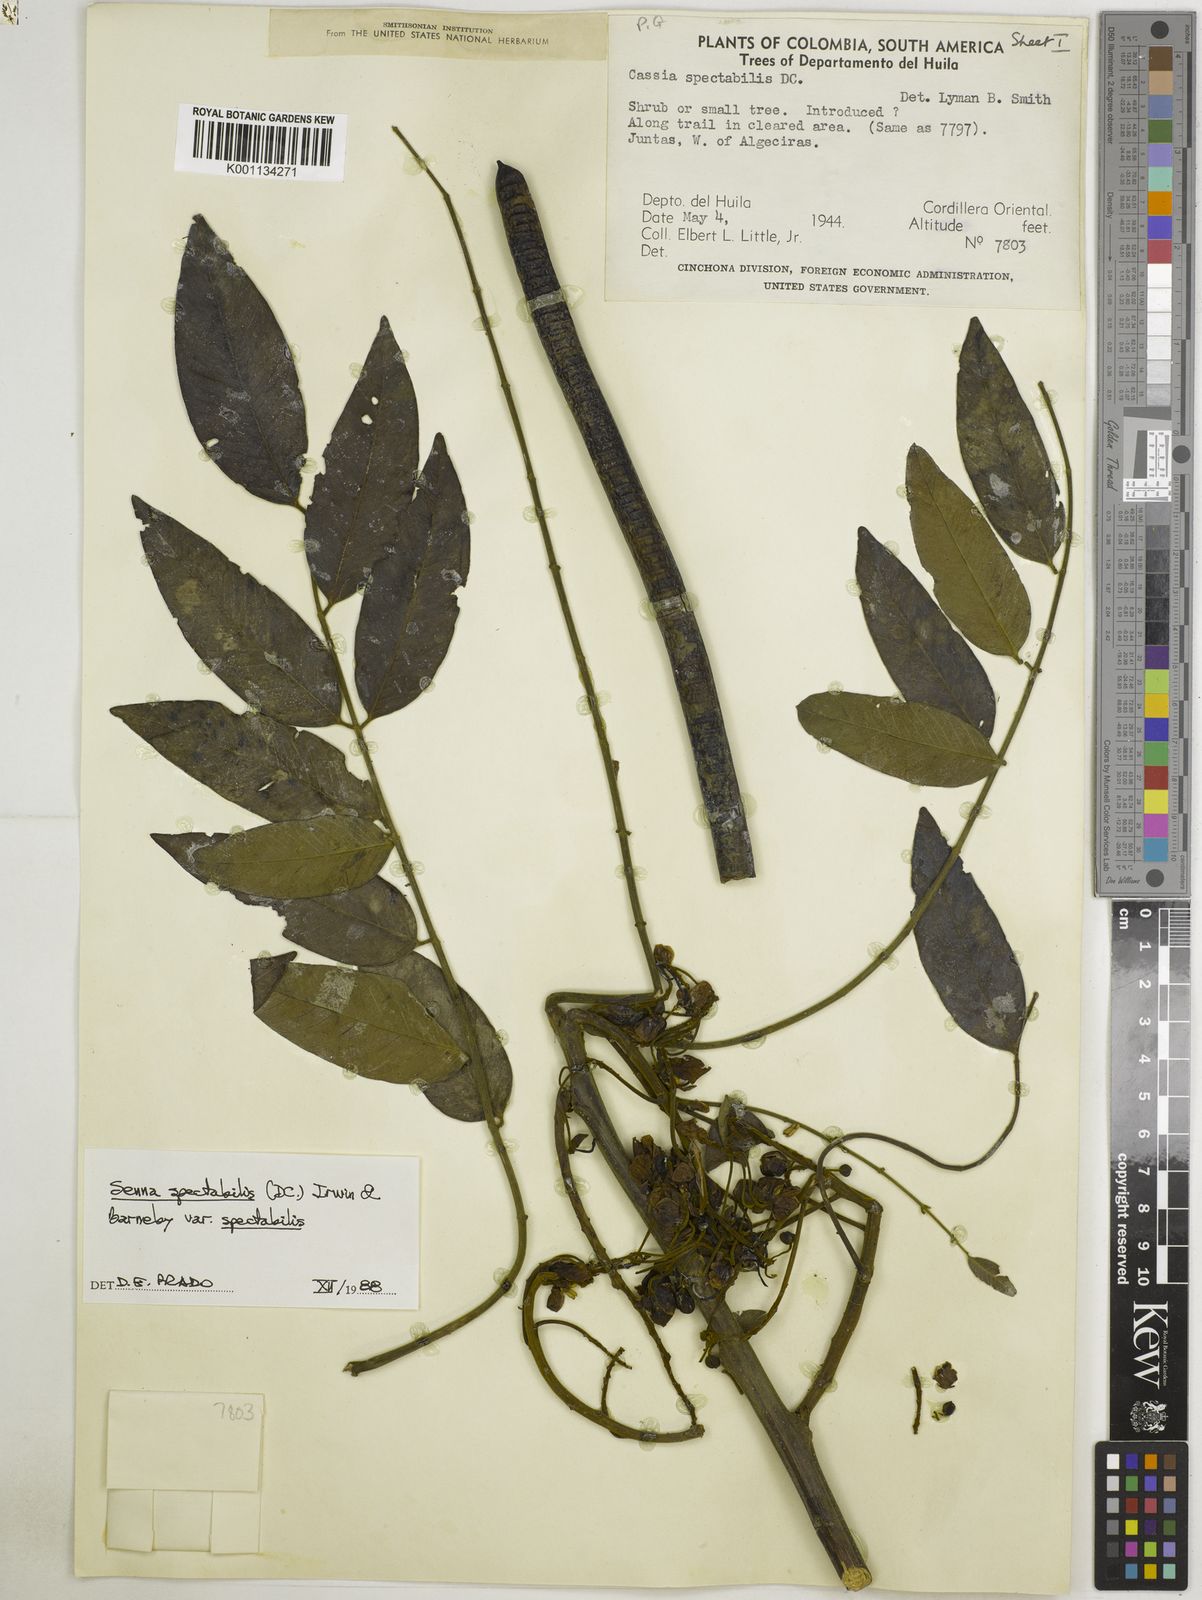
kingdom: Plantae
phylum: Tracheophyta
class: Magnoliopsida
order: Fabales
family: Fabaceae
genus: Senna
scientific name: Senna spectabilis
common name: Casia amarilla
